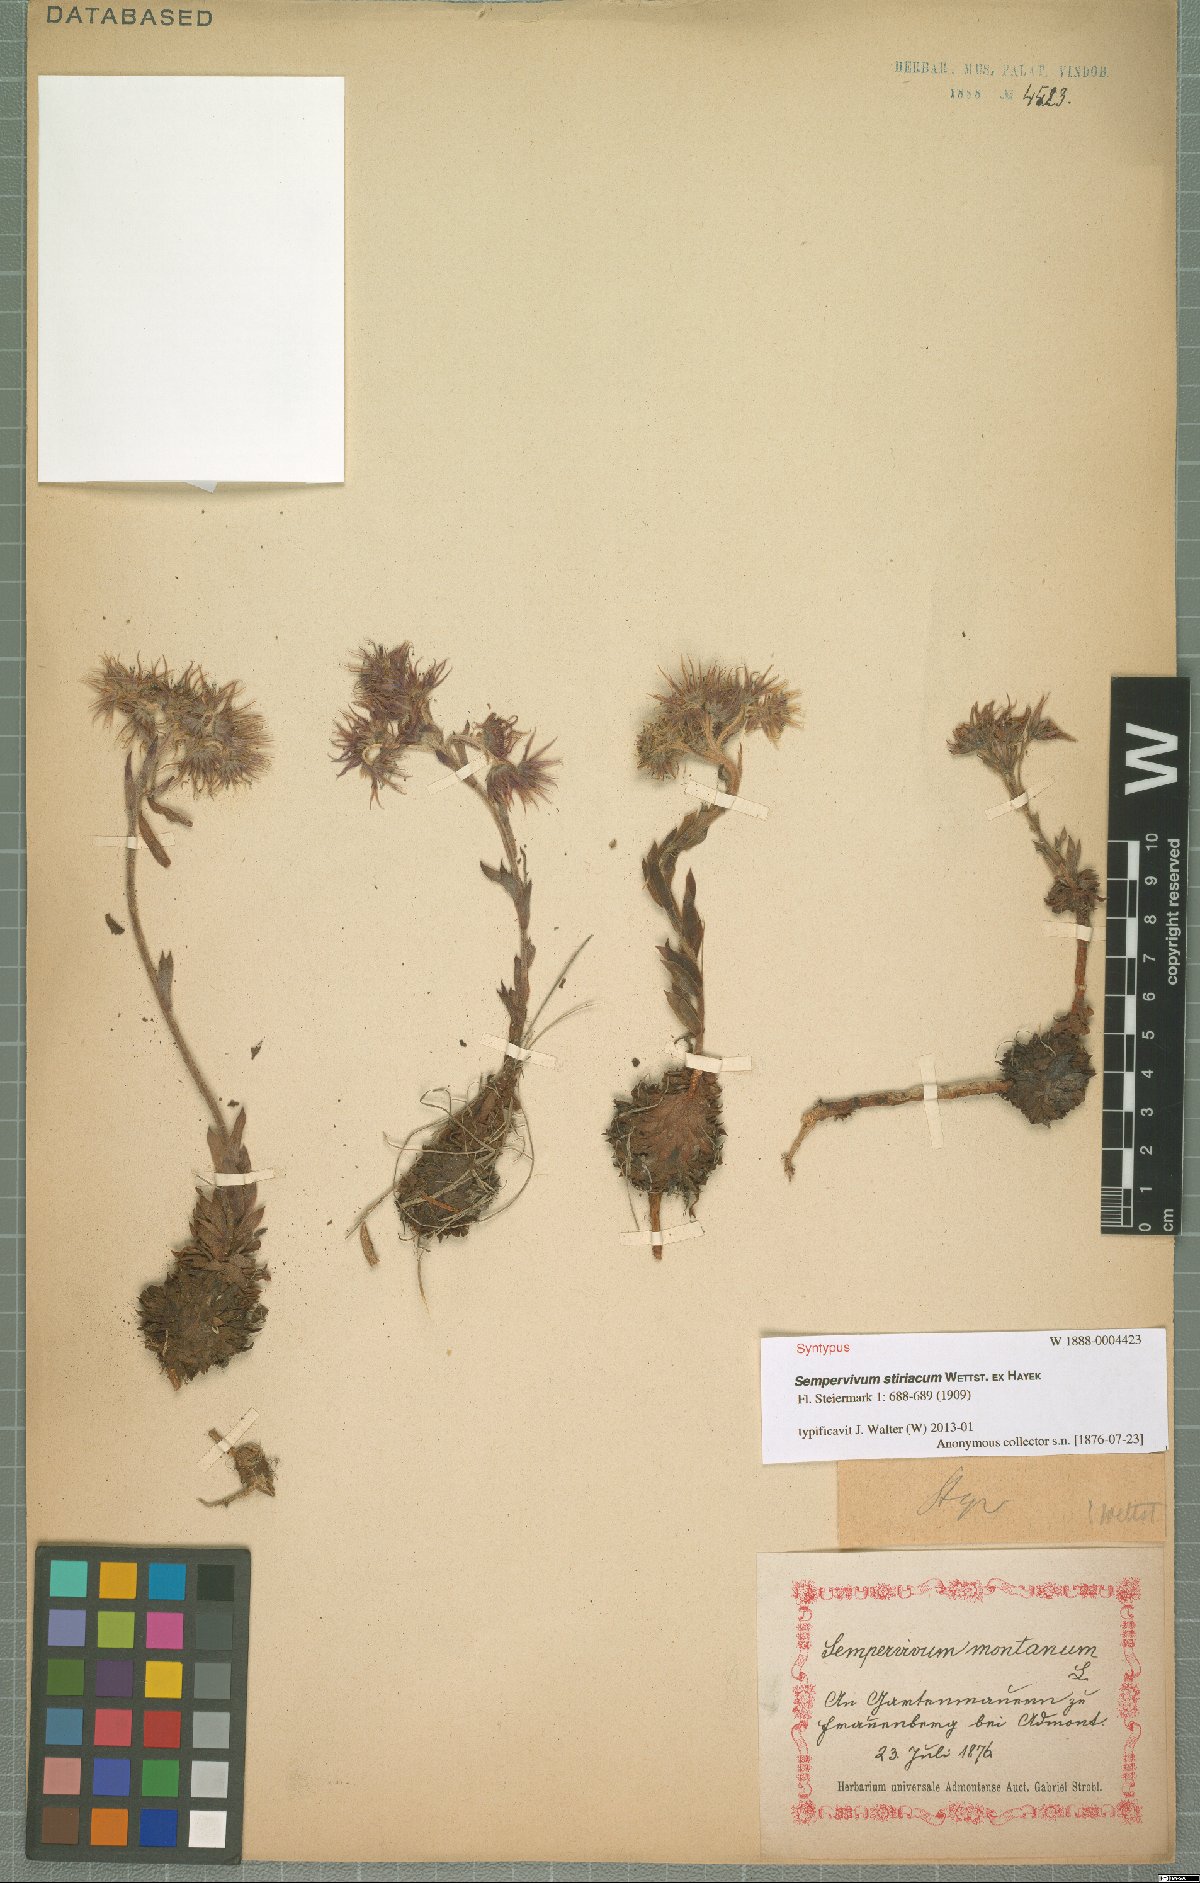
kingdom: Plantae
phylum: Tracheophyta
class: Magnoliopsida
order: Saxifragales
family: Crassulaceae
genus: Sempervivum
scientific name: Sempervivum montanum
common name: Mountain house-leek
